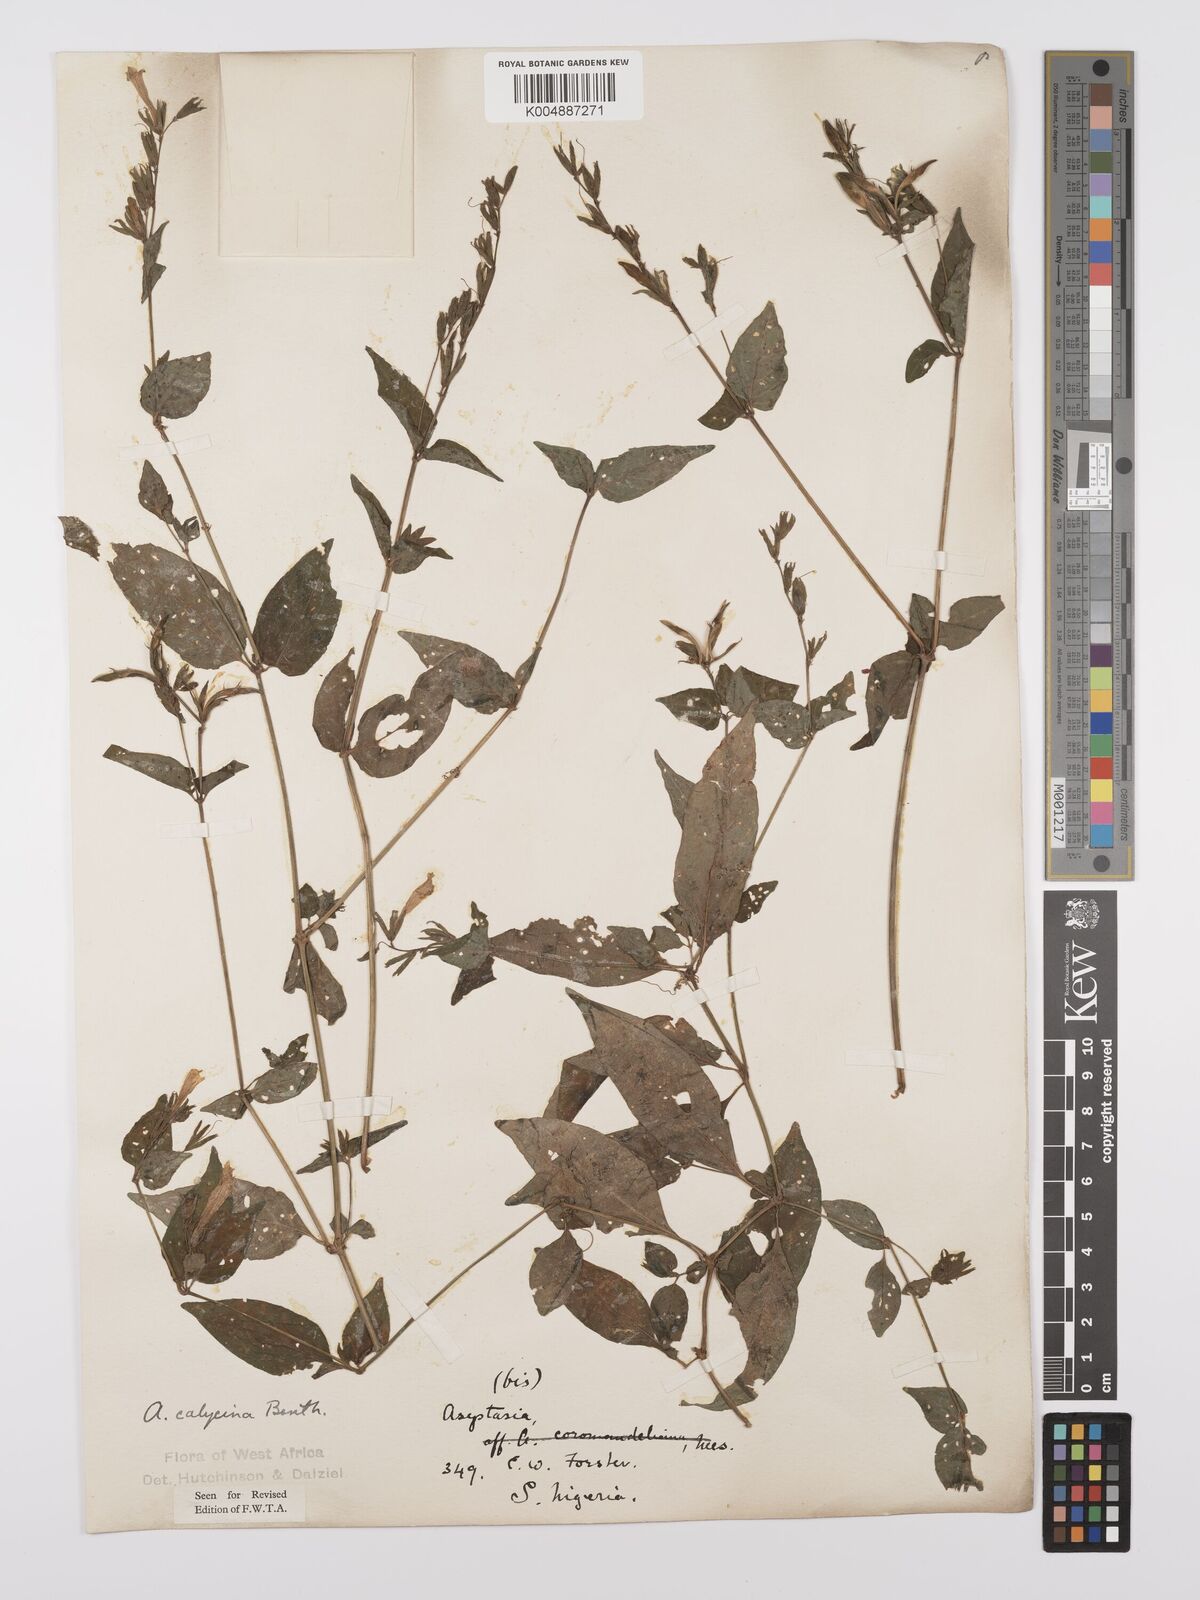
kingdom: Plantae
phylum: Tracheophyta
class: Magnoliopsida
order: Lamiales
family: Acanthaceae
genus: Asystasia
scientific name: Asystasia buettneri
